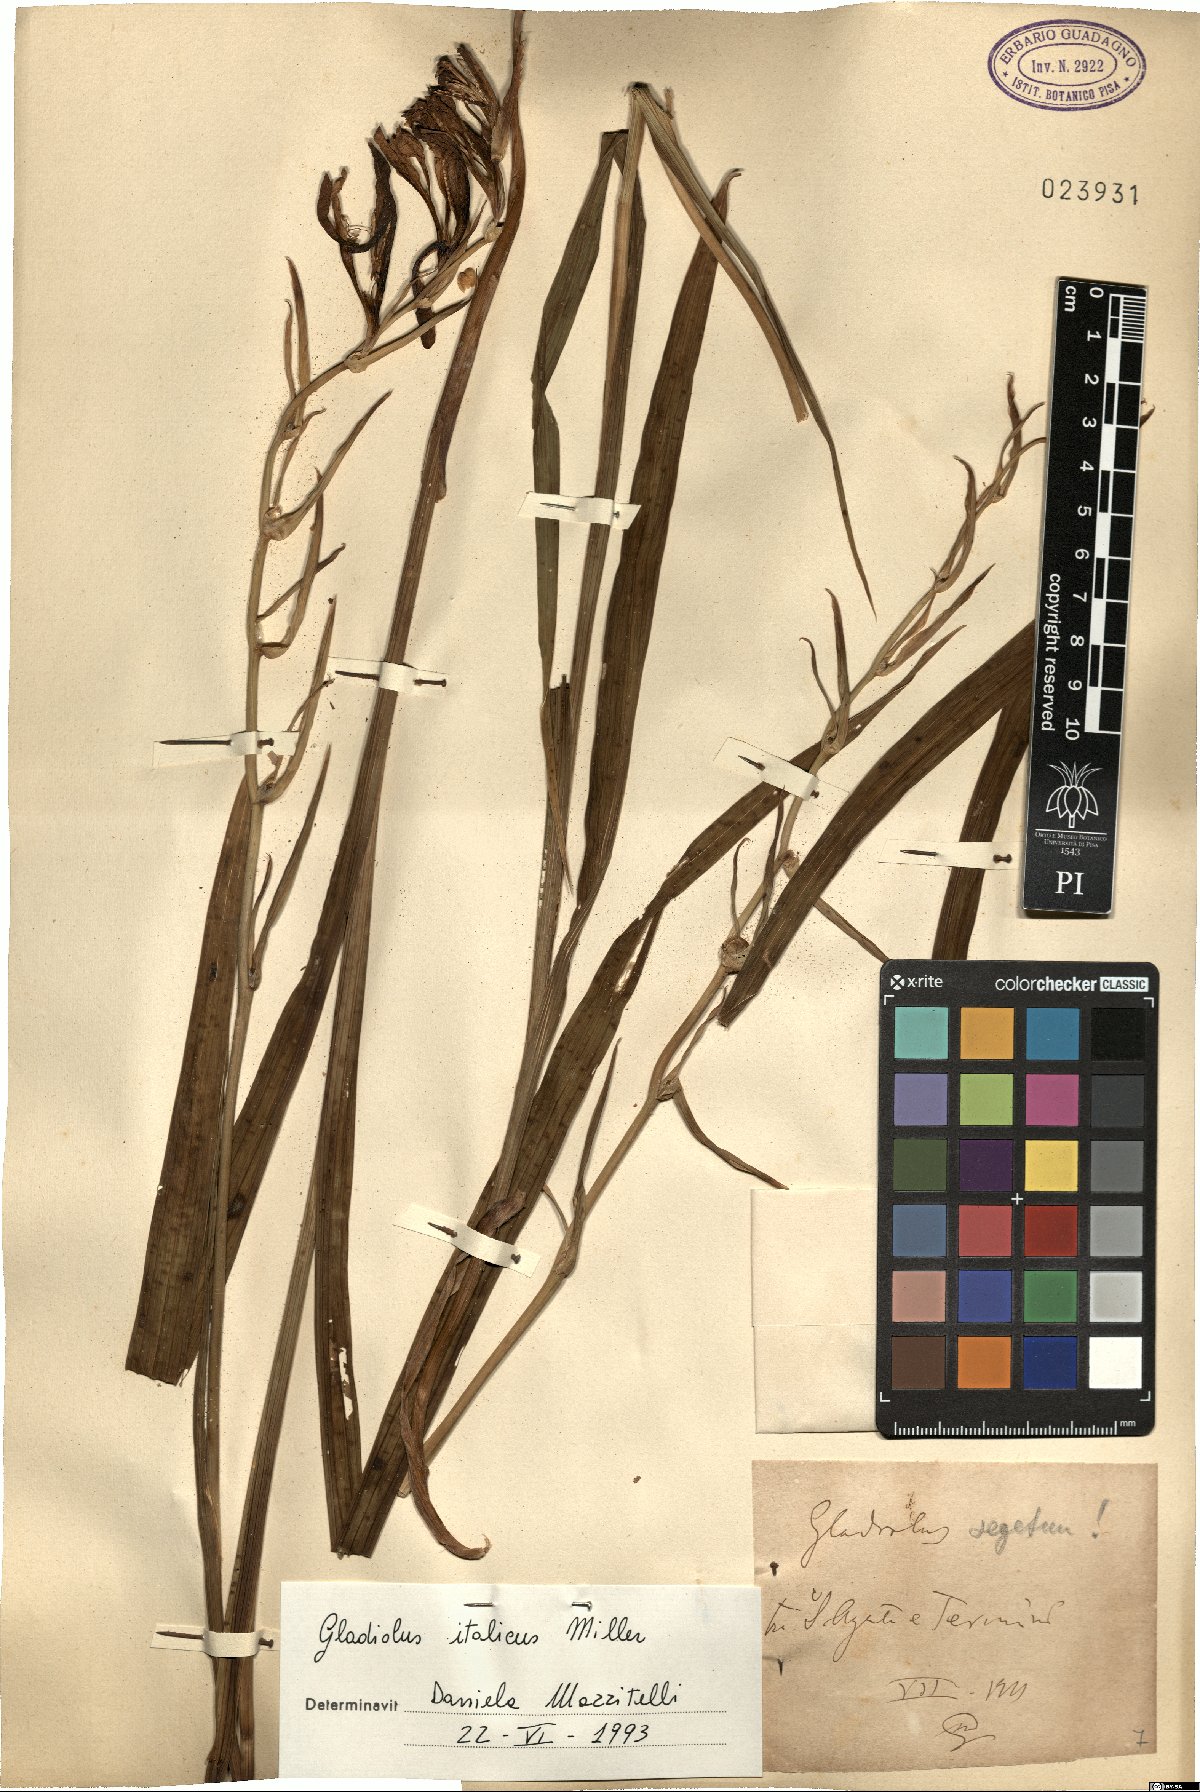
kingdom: Plantae
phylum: Tracheophyta
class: Liliopsida
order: Asparagales
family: Iridaceae
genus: Gladiolus
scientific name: Gladiolus italicus
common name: Field gladiolus
